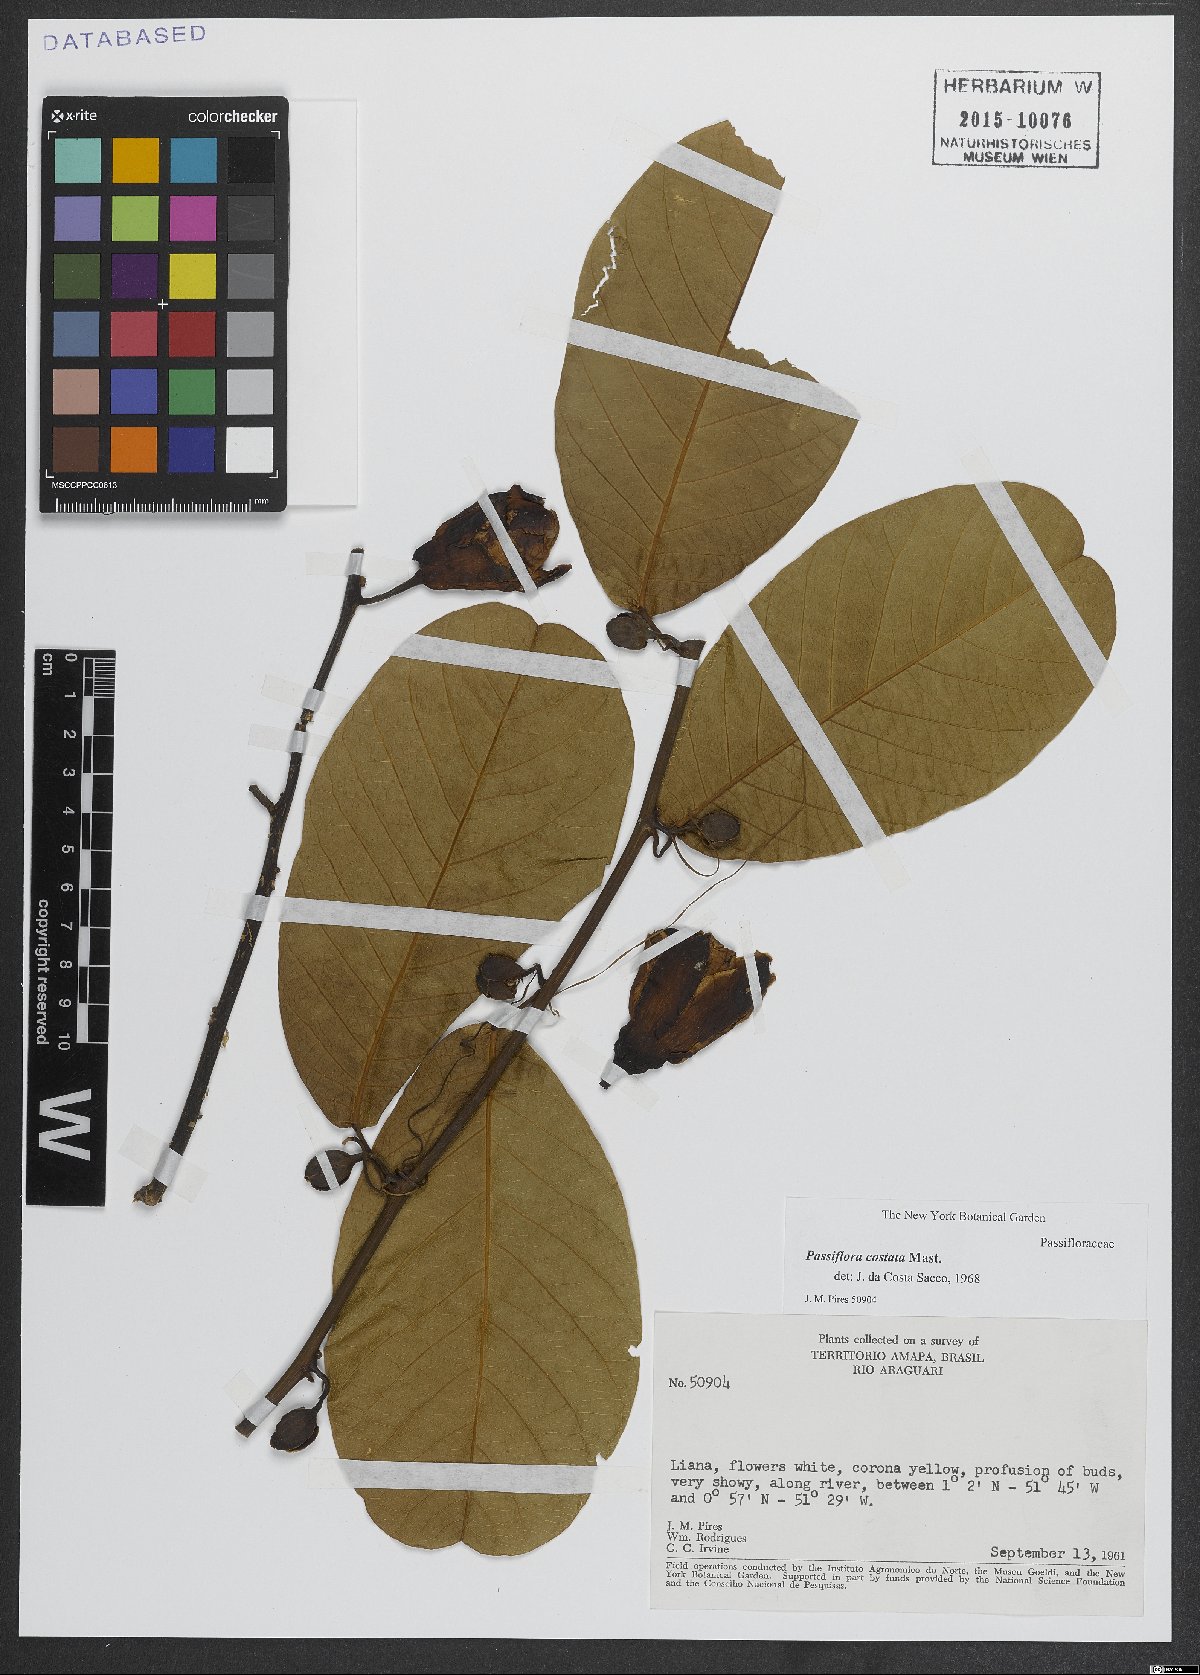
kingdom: Plantae
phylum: Tracheophyta
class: Magnoliopsida
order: Malpighiales
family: Passifloraceae
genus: Passiflora
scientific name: Passiflora costata
